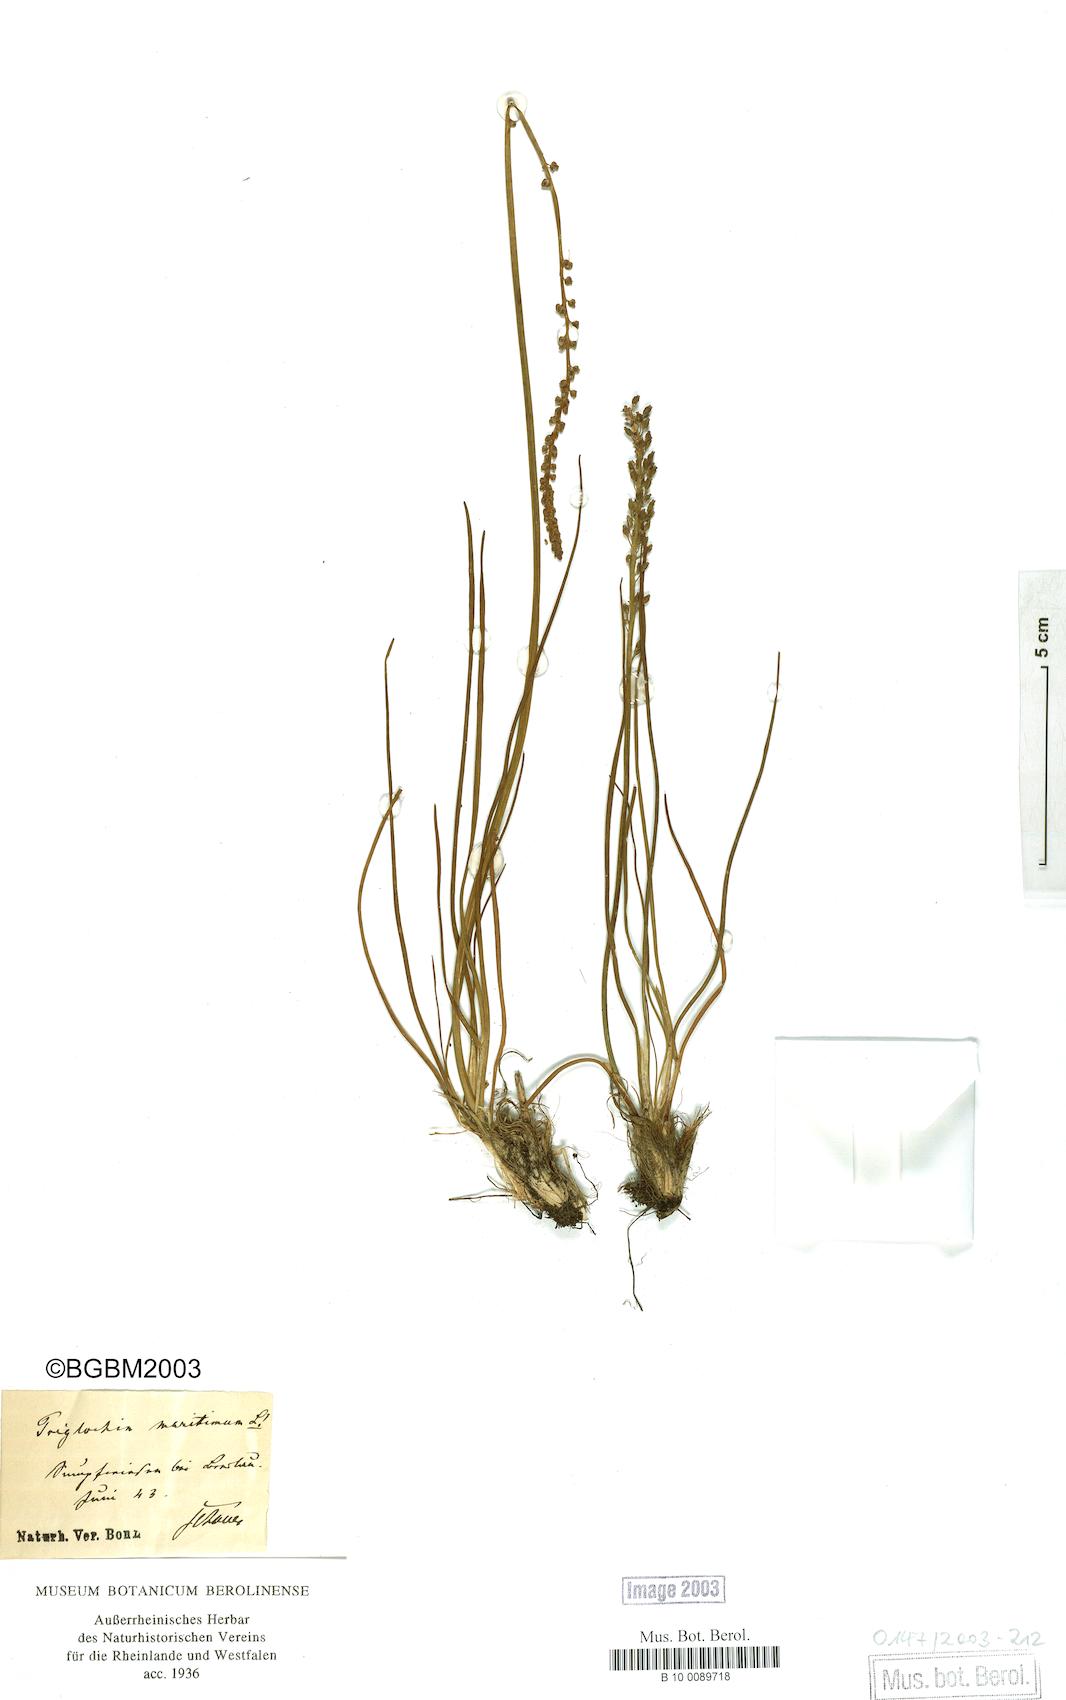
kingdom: Plantae
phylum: Tracheophyta
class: Liliopsida
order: Alismatales
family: Juncaginaceae
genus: Triglochin
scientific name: Triglochin maritima
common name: Sea arrowgrass
